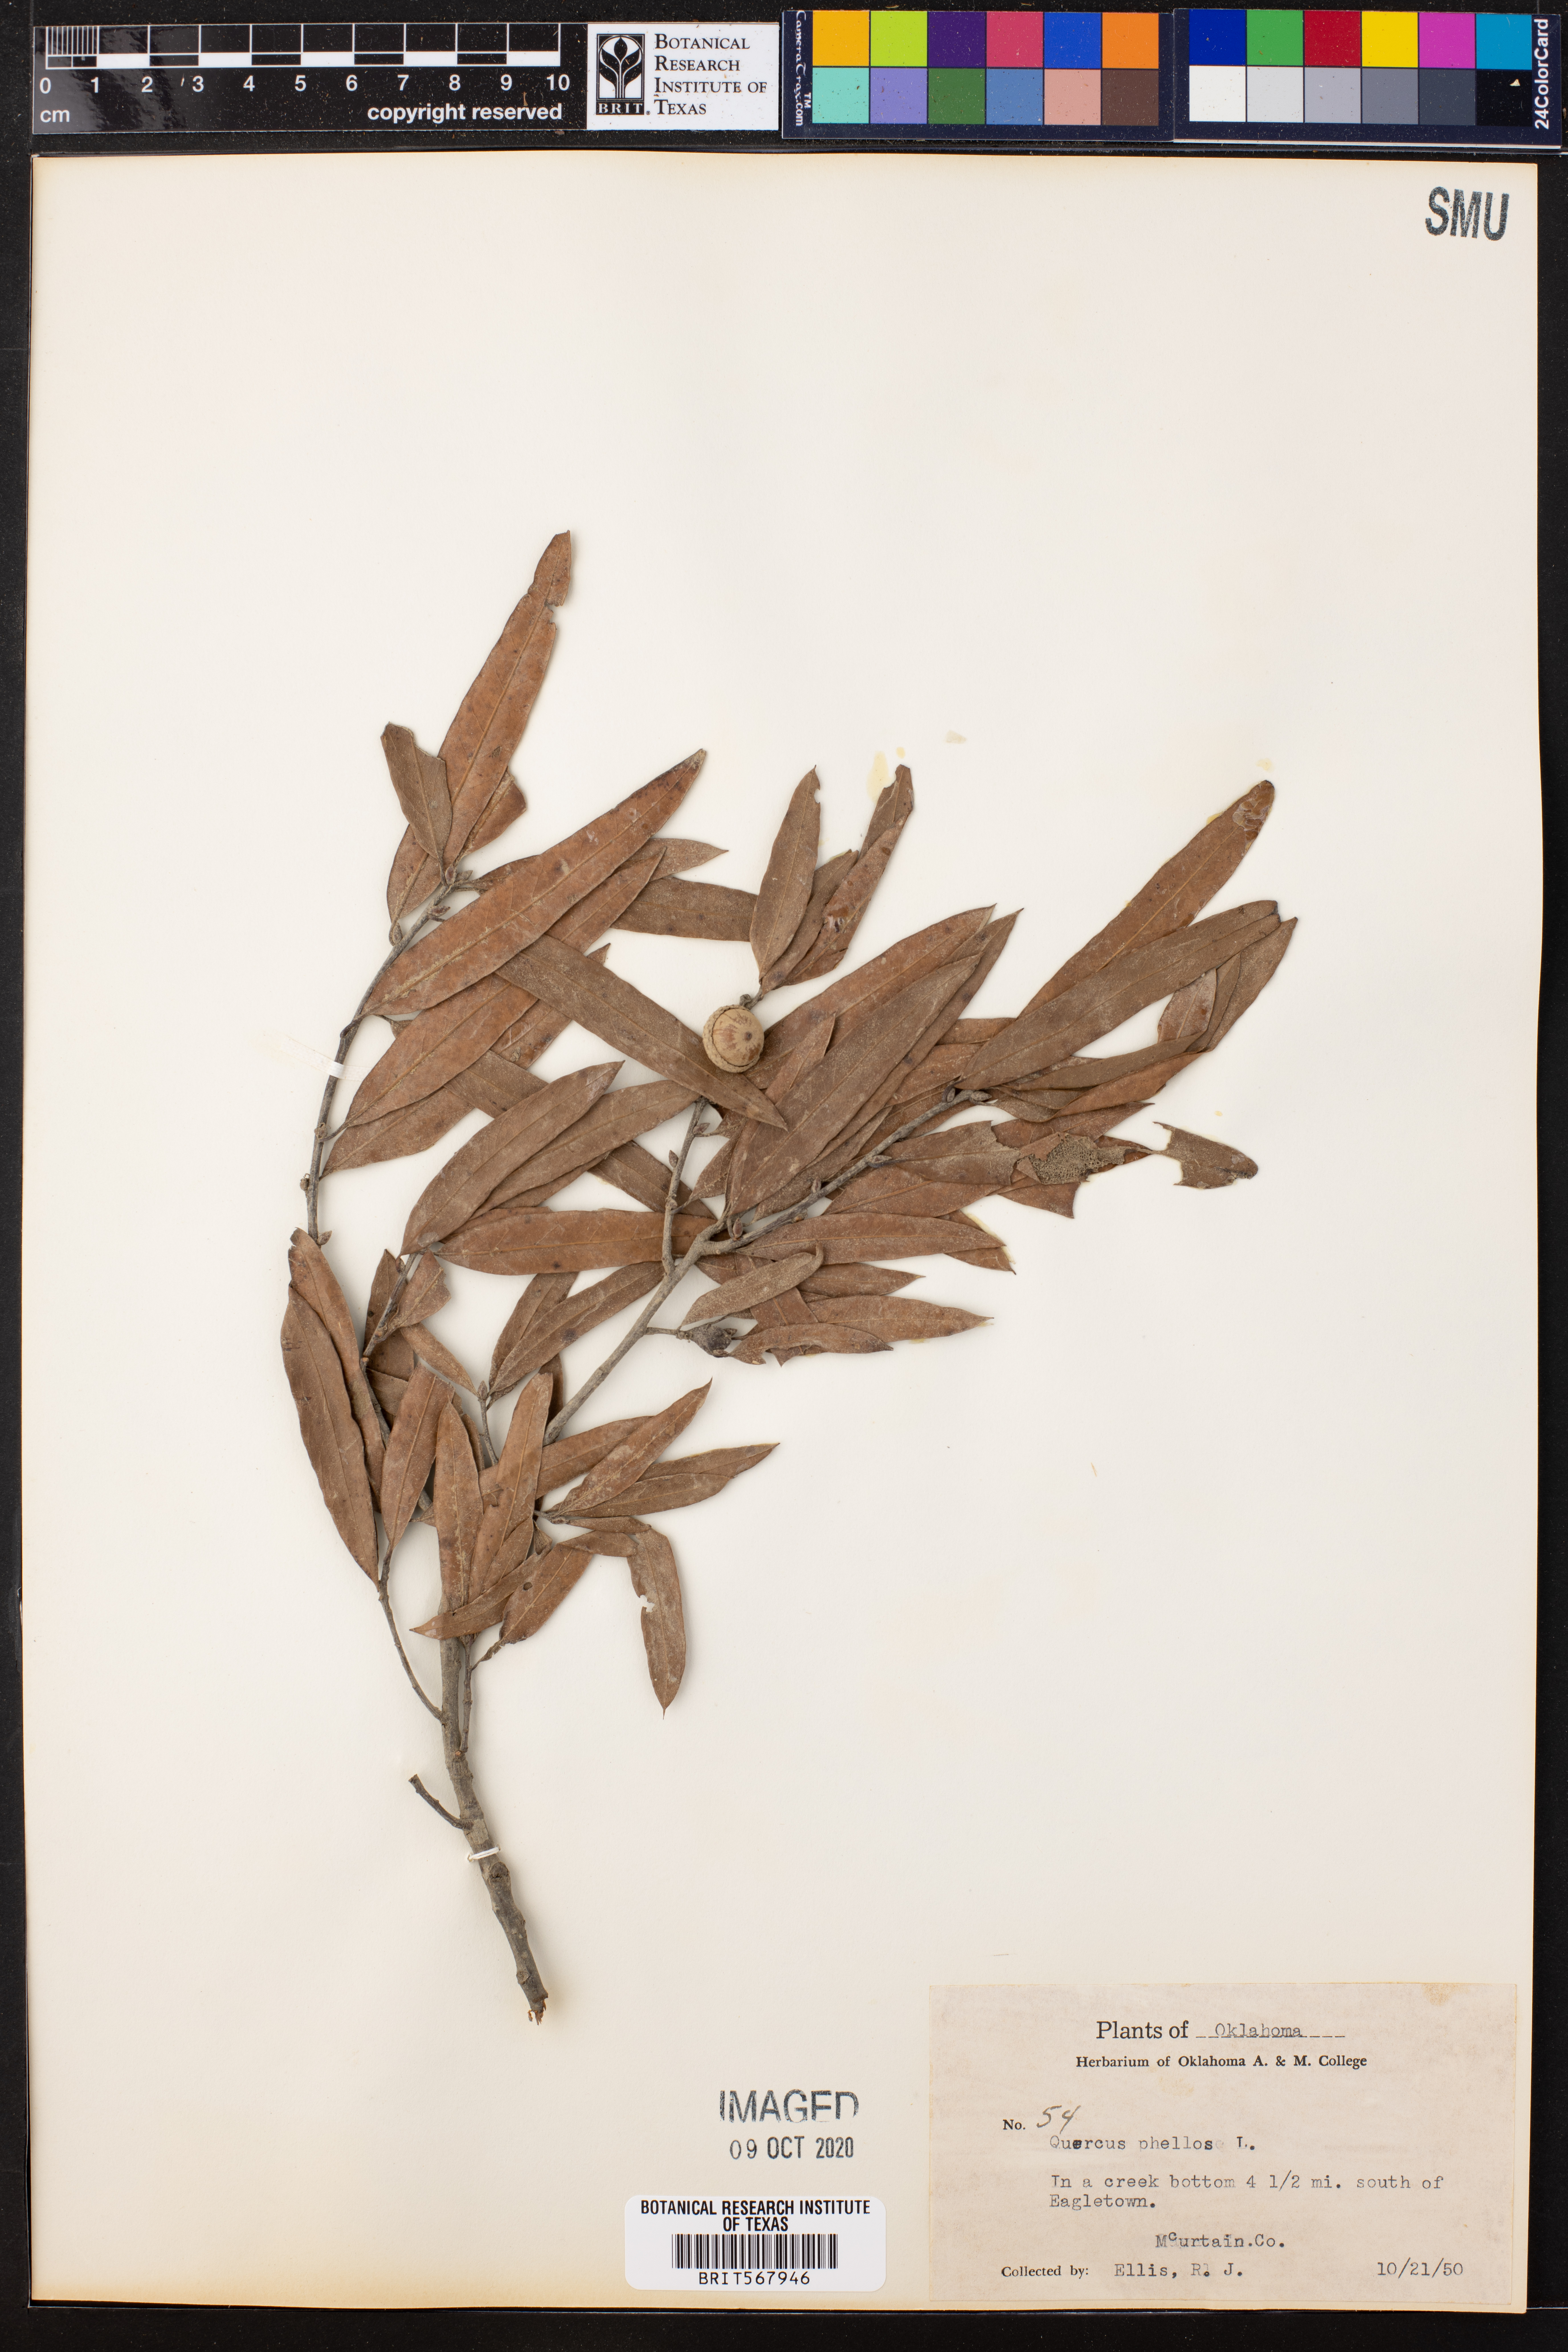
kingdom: Plantae
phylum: Tracheophyta
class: Magnoliopsida
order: Fagales
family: Fagaceae
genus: Quercus
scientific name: Quercus phellos
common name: Willow oak
